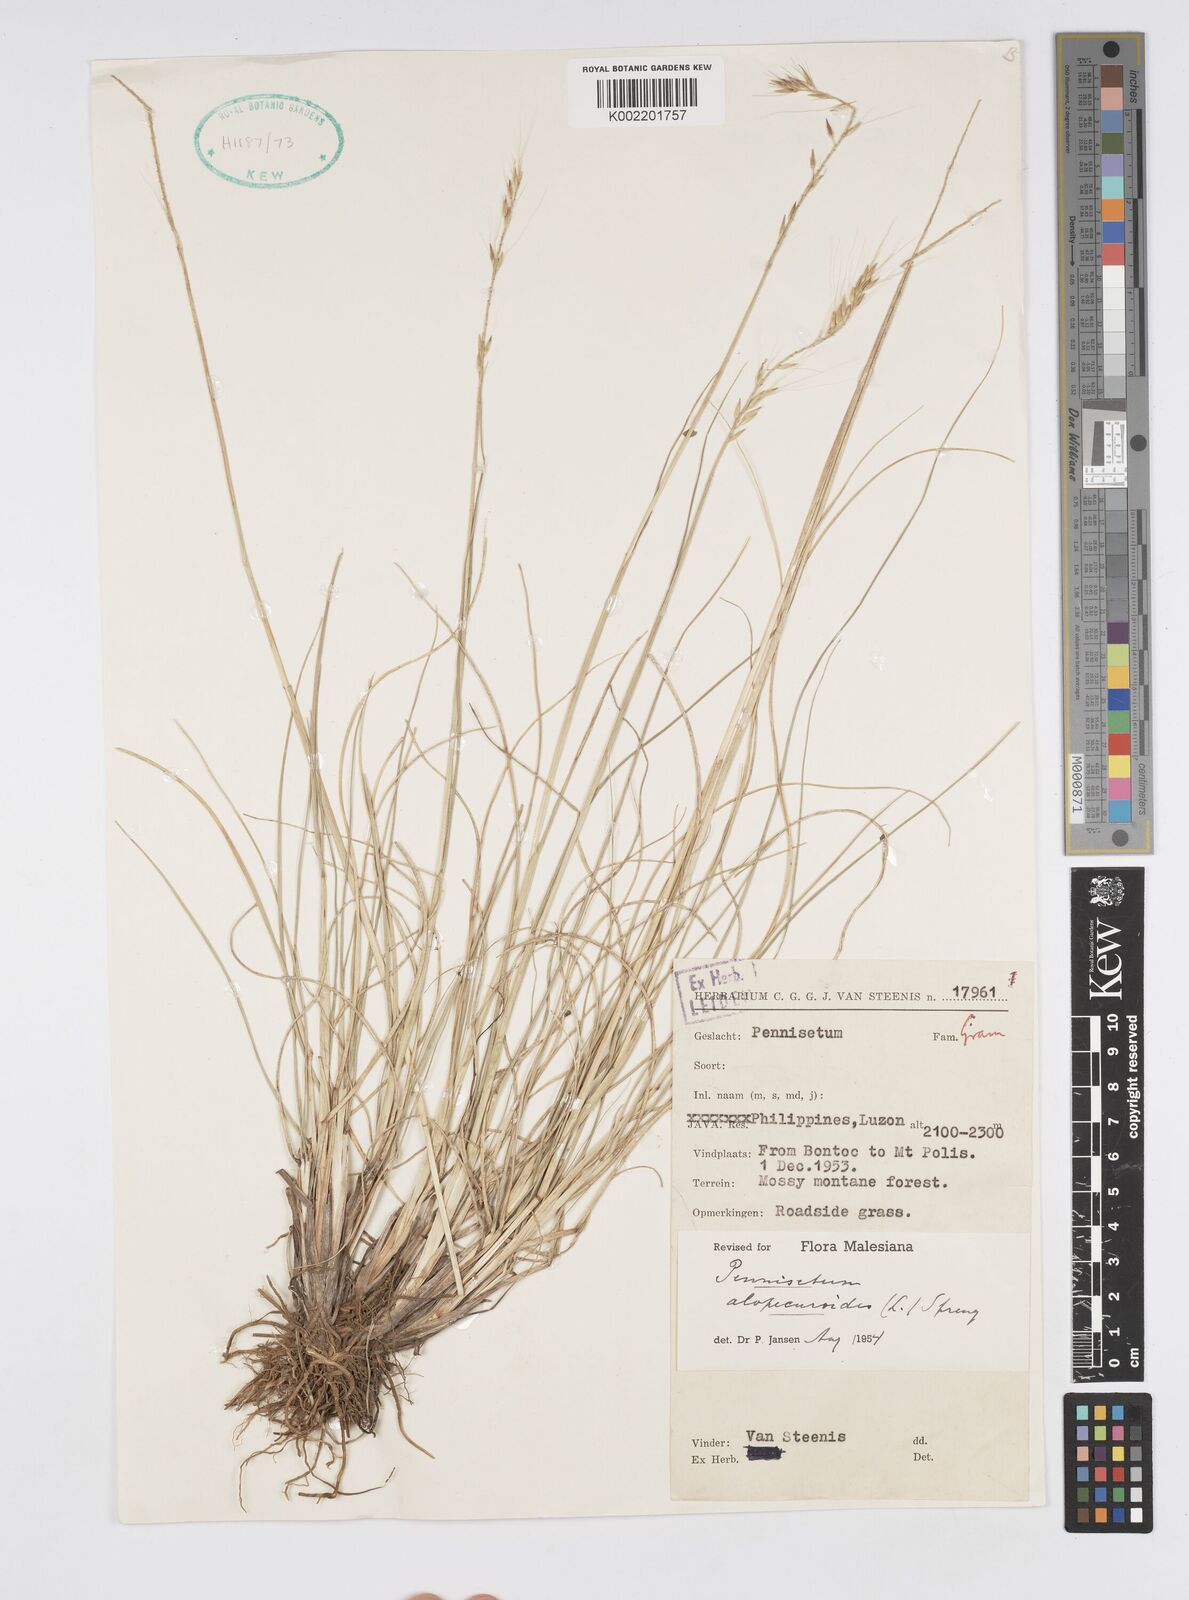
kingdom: Plantae
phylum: Tracheophyta
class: Liliopsida
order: Poales
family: Poaceae
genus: Cenchrus
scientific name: Cenchrus setosus
